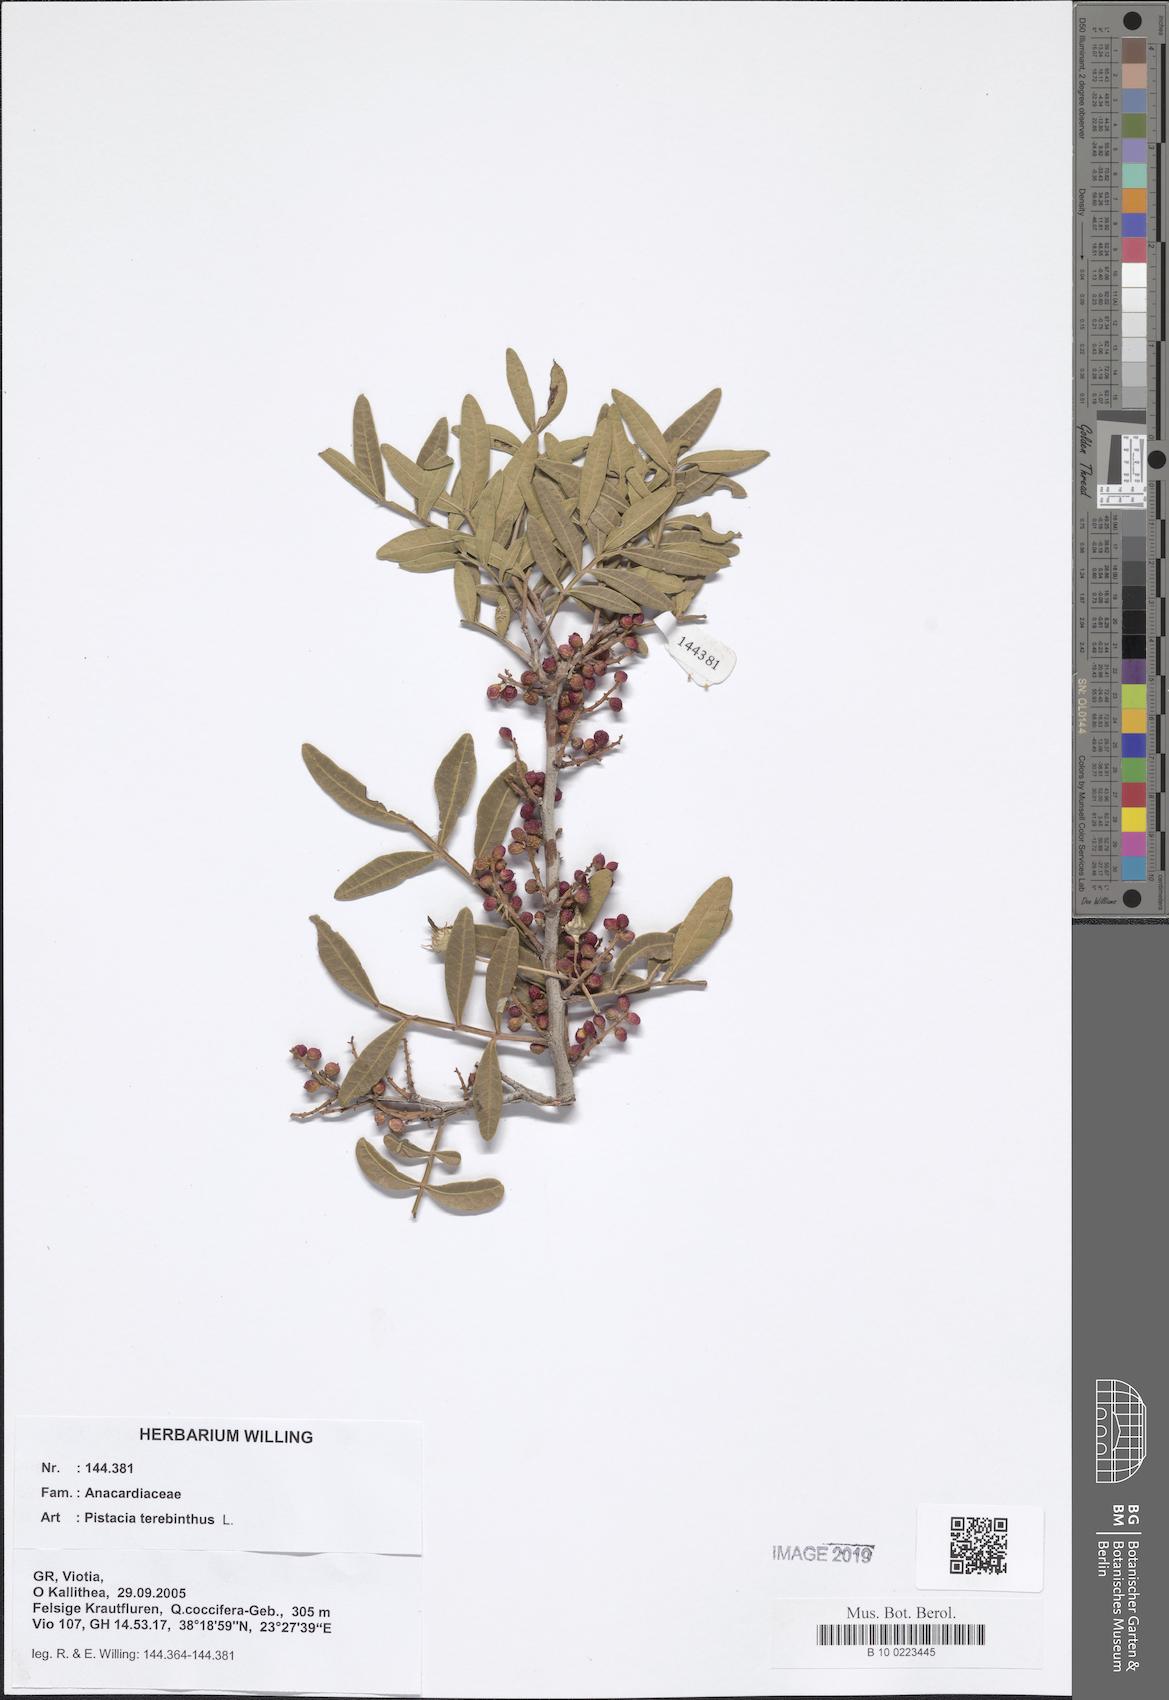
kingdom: Plantae
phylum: Tracheophyta
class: Magnoliopsida
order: Sapindales
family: Anacardiaceae
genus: Pistacia
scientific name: Pistacia terebinthus
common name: Terebinth
